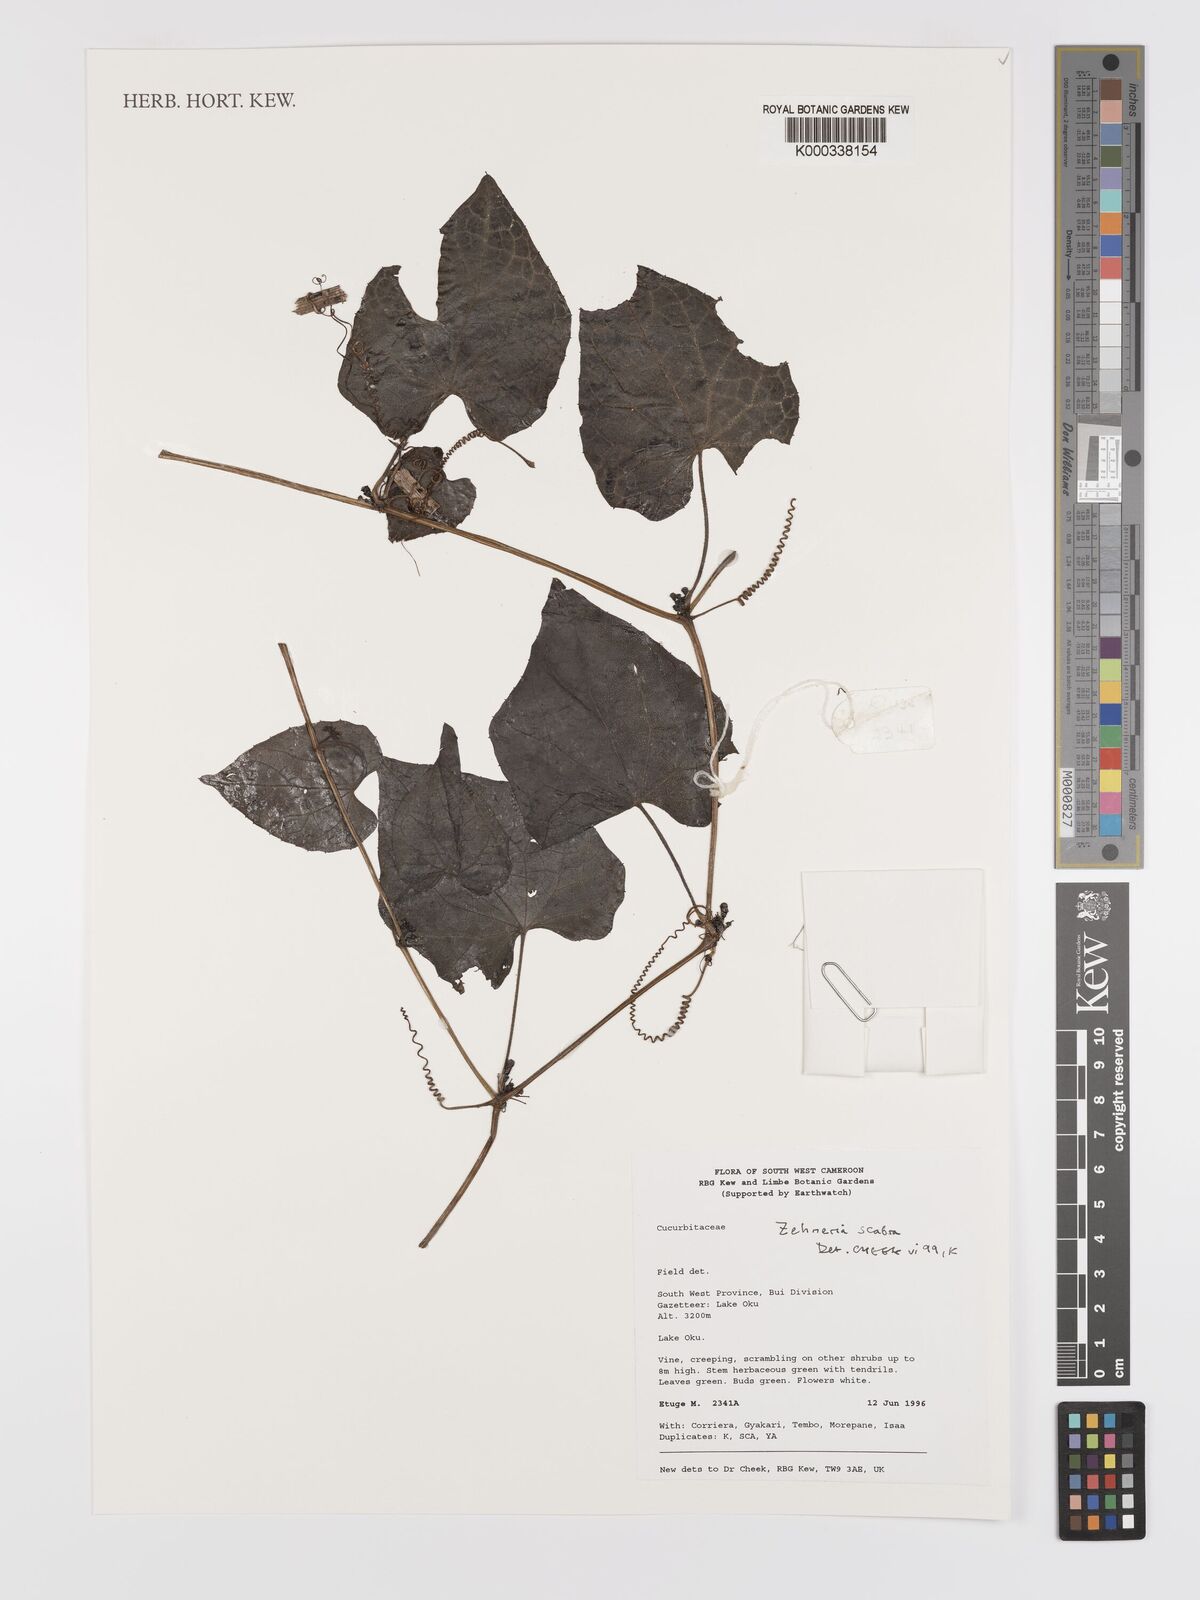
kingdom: Plantae
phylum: Tracheophyta
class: Magnoliopsida
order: Cucurbitales
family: Cucurbitaceae
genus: Zehneria
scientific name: Zehneria scabra
